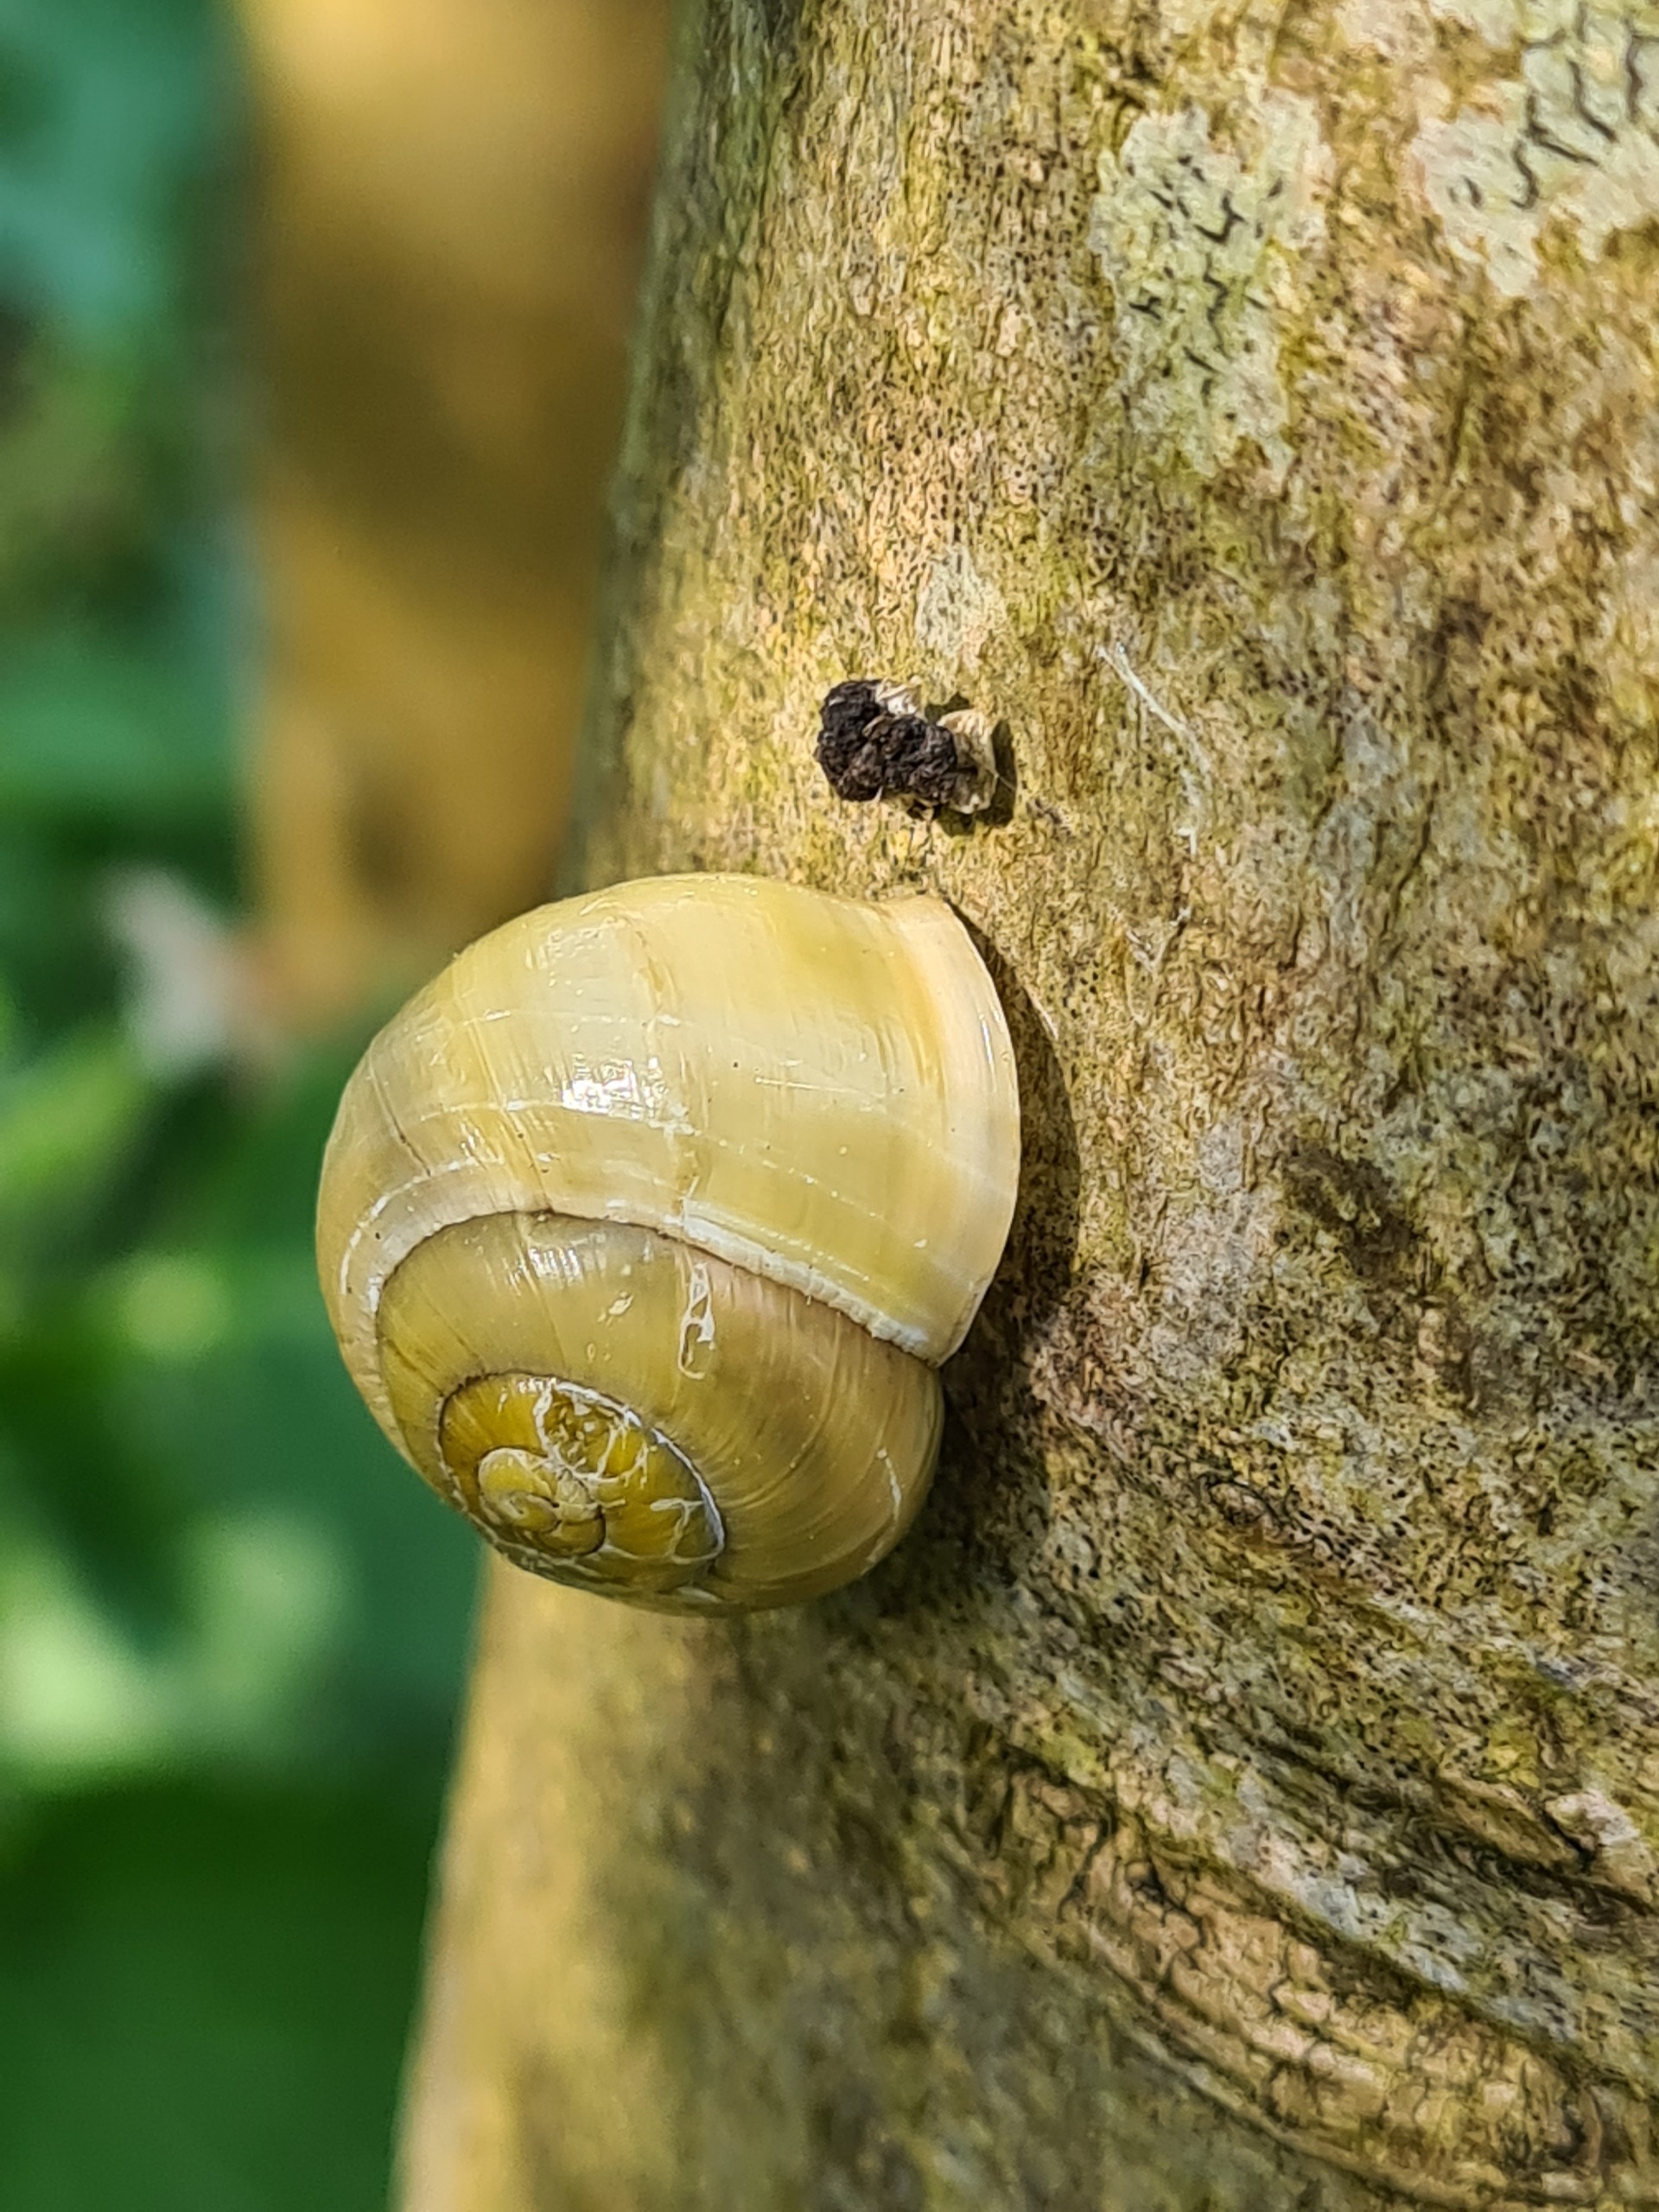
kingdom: Animalia
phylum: Mollusca
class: Gastropoda
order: Stylommatophora
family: Helicidae
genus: Cepaea
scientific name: Cepaea hortensis
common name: Havesnegl
